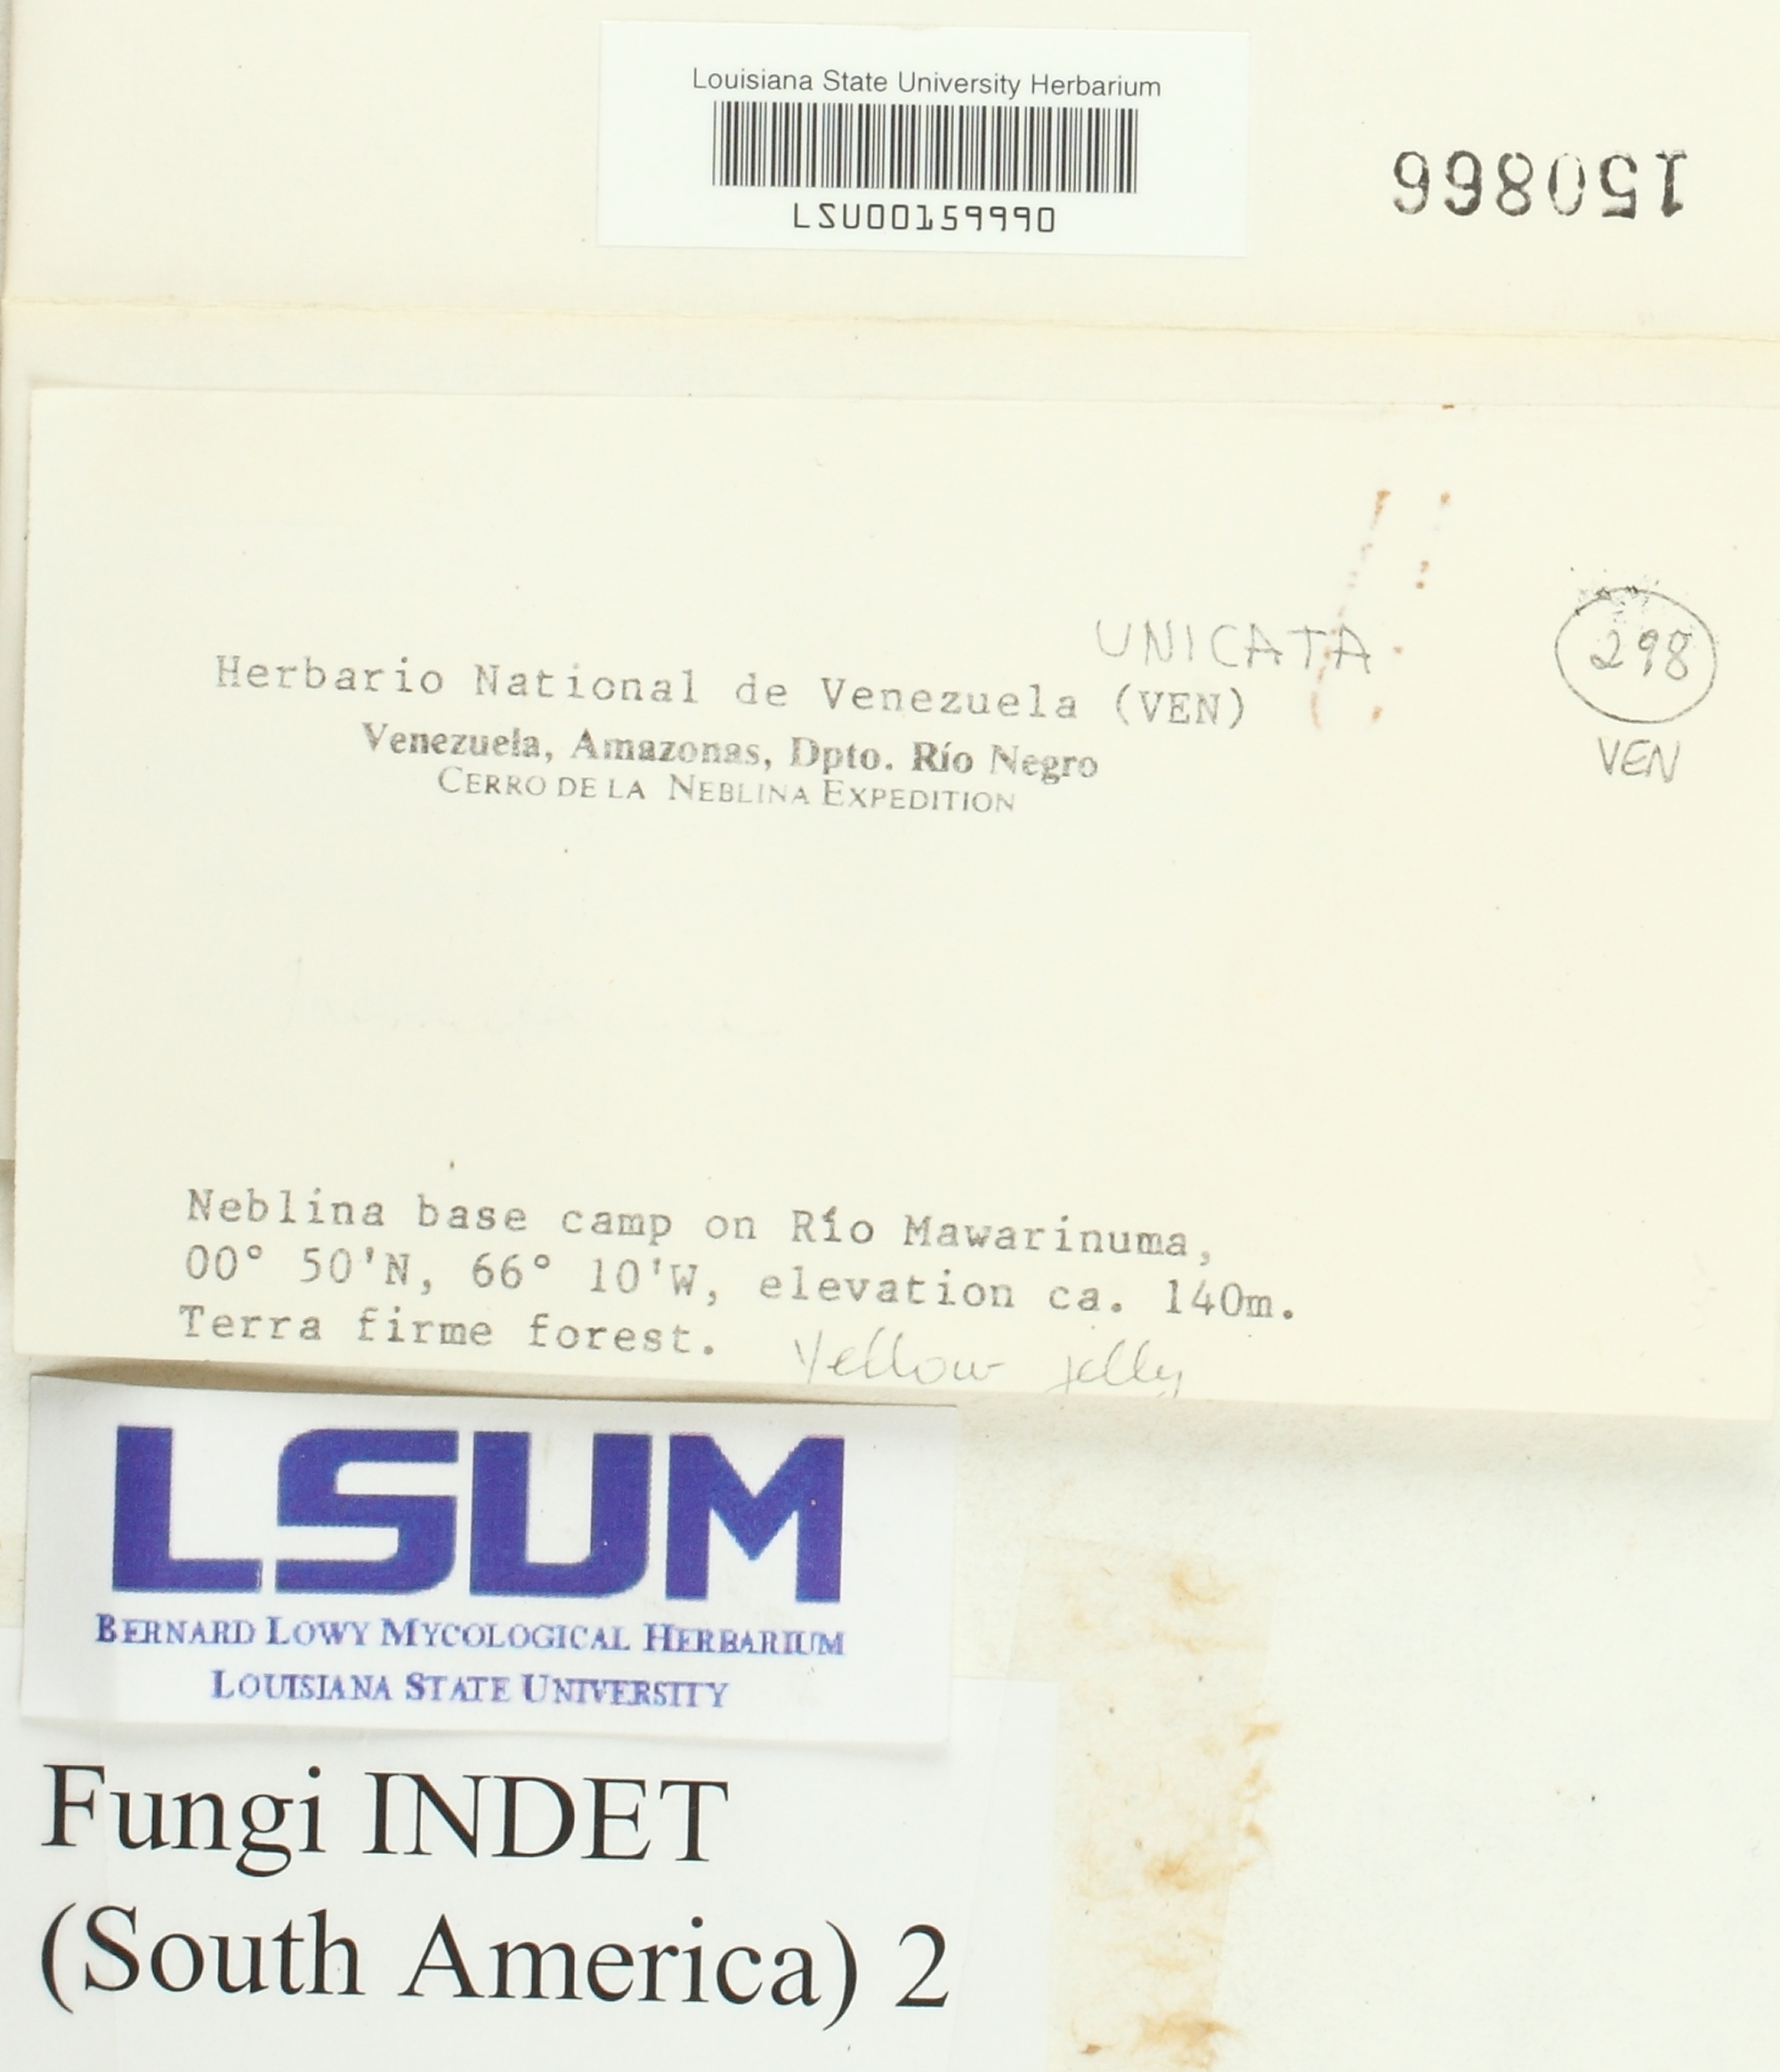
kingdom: Fungi
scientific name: Fungi
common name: Fungi
